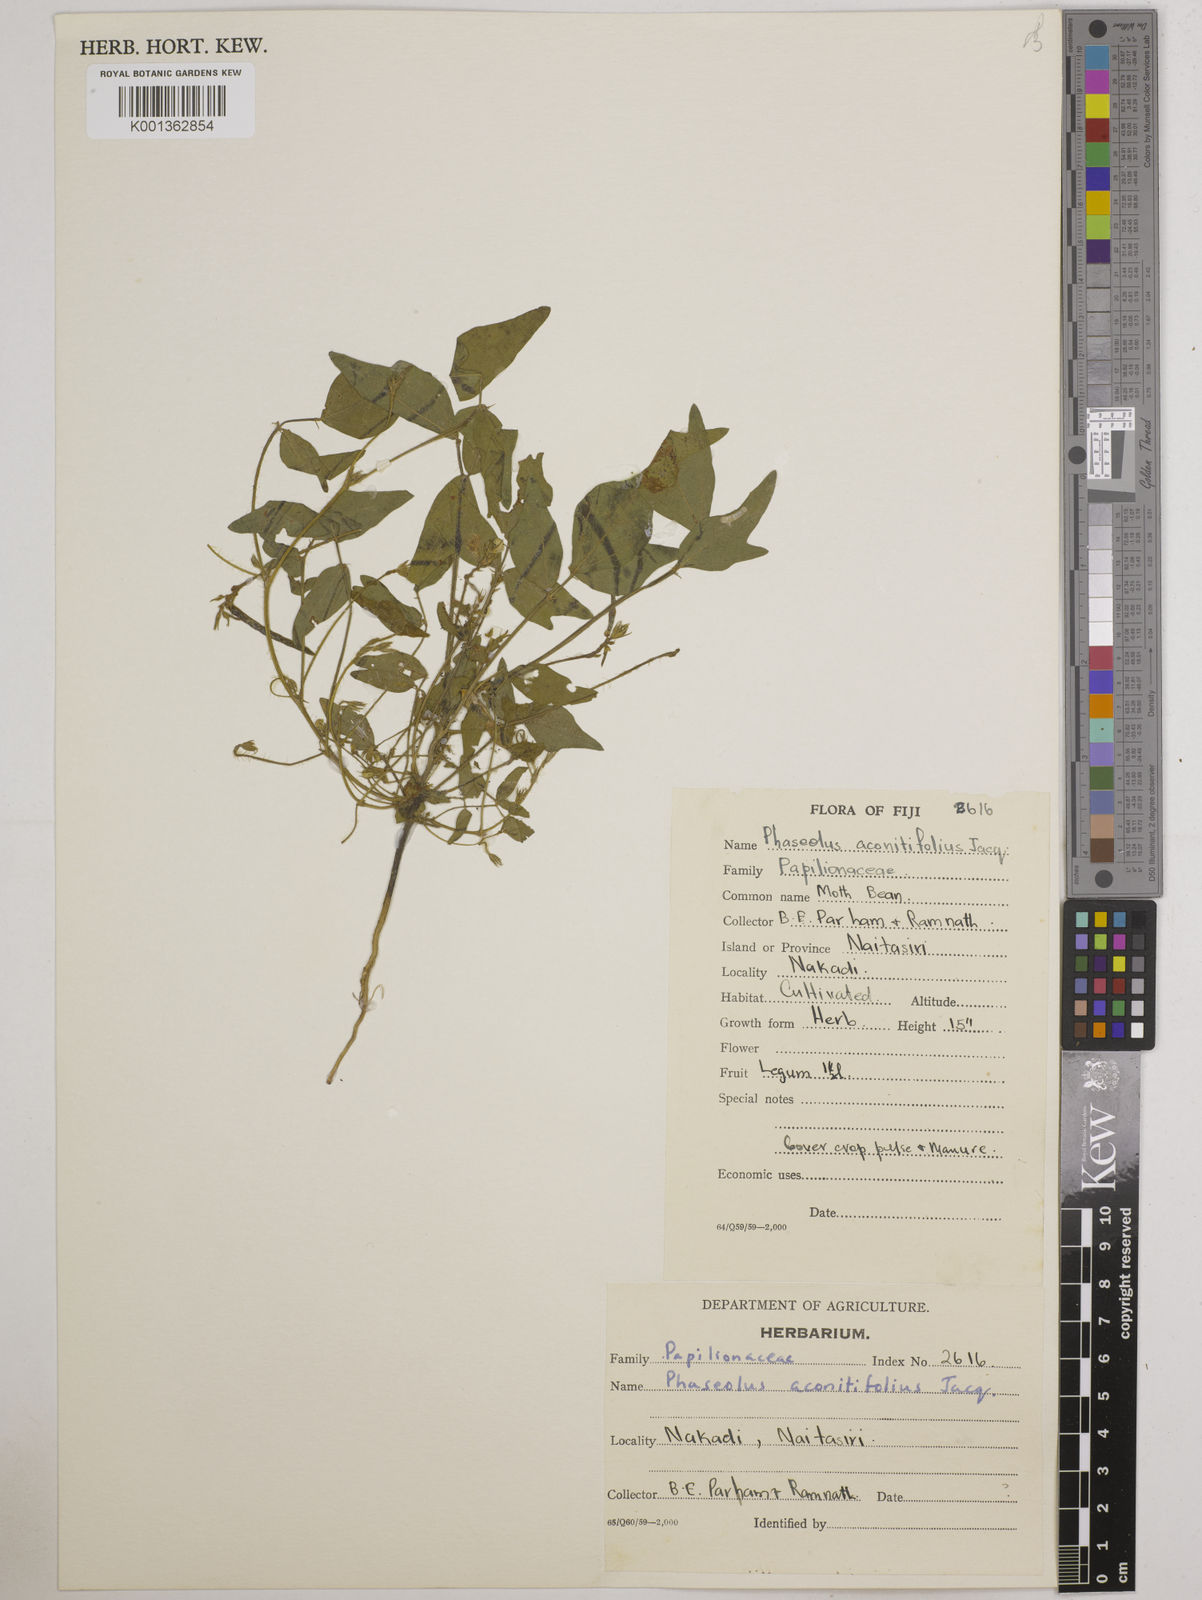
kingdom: Plantae
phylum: Tracheophyta
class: Magnoliopsida
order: Fabales
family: Fabaceae
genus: Vigna
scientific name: Vigna aconitifolia
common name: Dew bean
